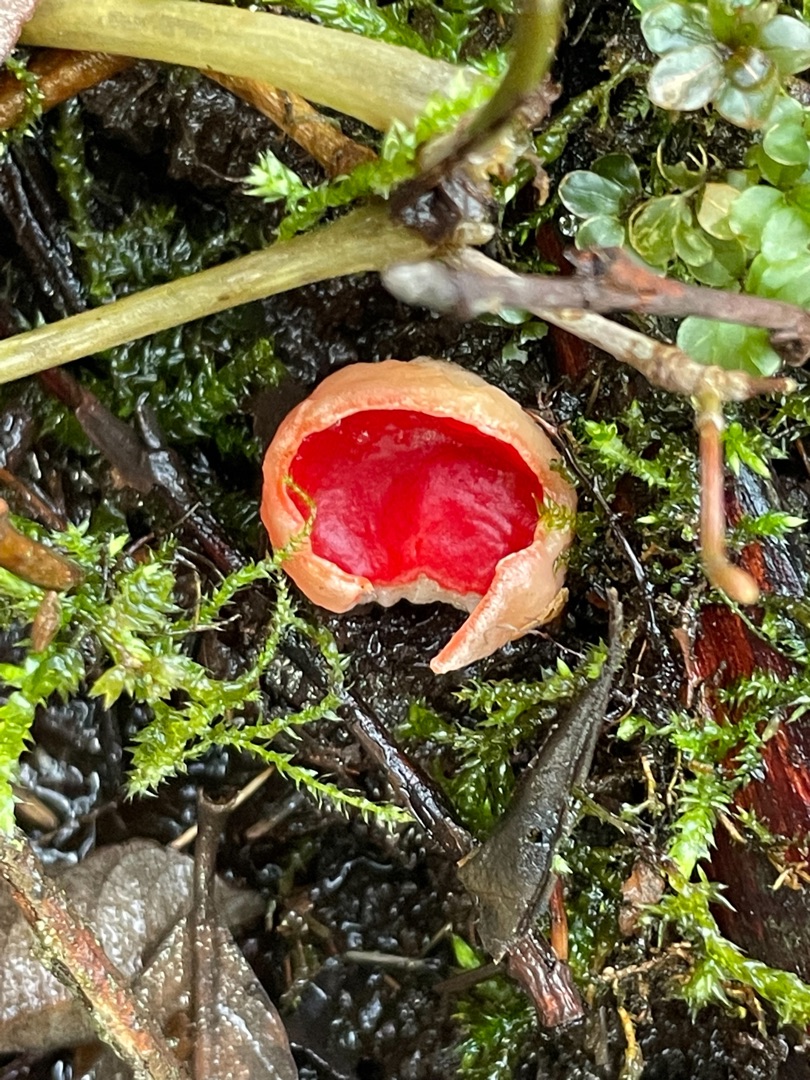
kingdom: Fungi
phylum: Ascomycota
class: Pezizomycetes
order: Pezizales
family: Sarcoscyphaceae
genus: Sarcoscypha
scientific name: Sarcoscypha austriaca
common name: Krølhåret pragtbæger
